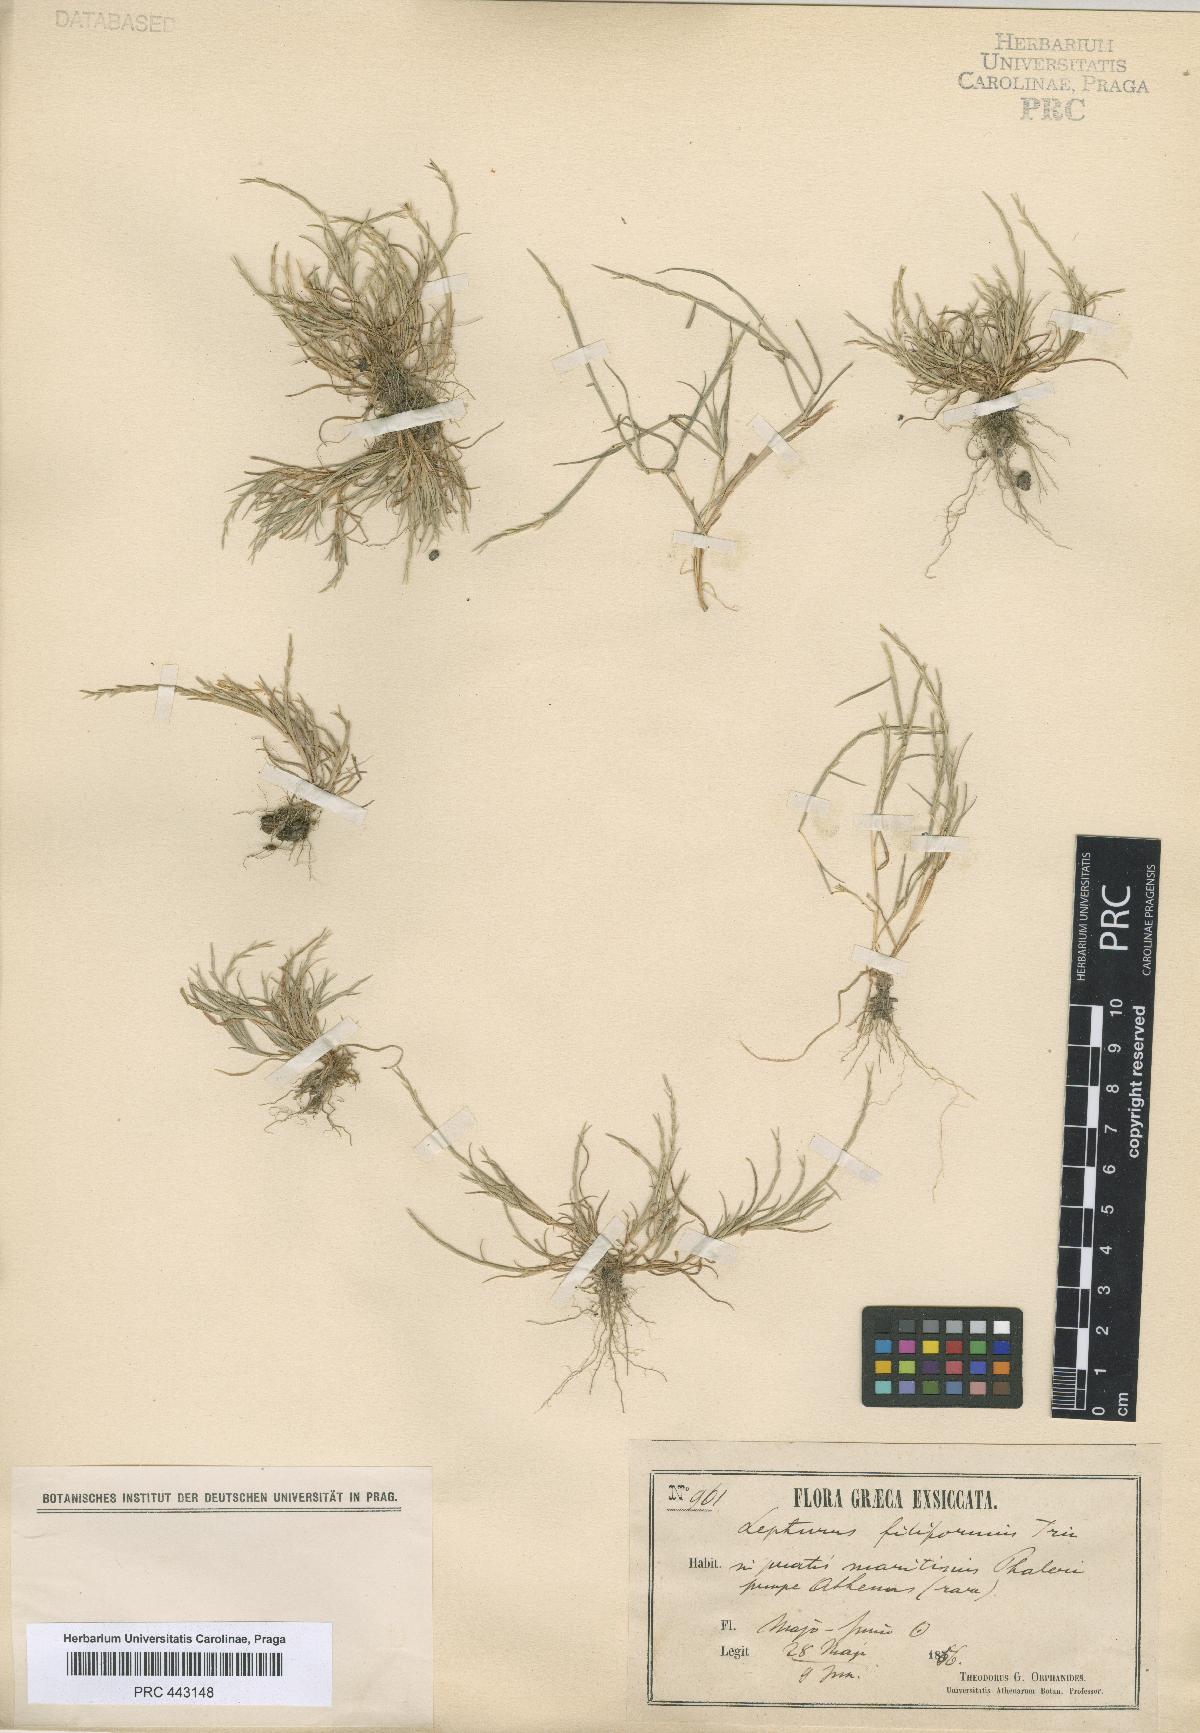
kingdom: Plantae
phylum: Tracheophyta
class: Liliopsida
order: Poales
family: Poaceae
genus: Parapholis
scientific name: Parapholis filiformis
